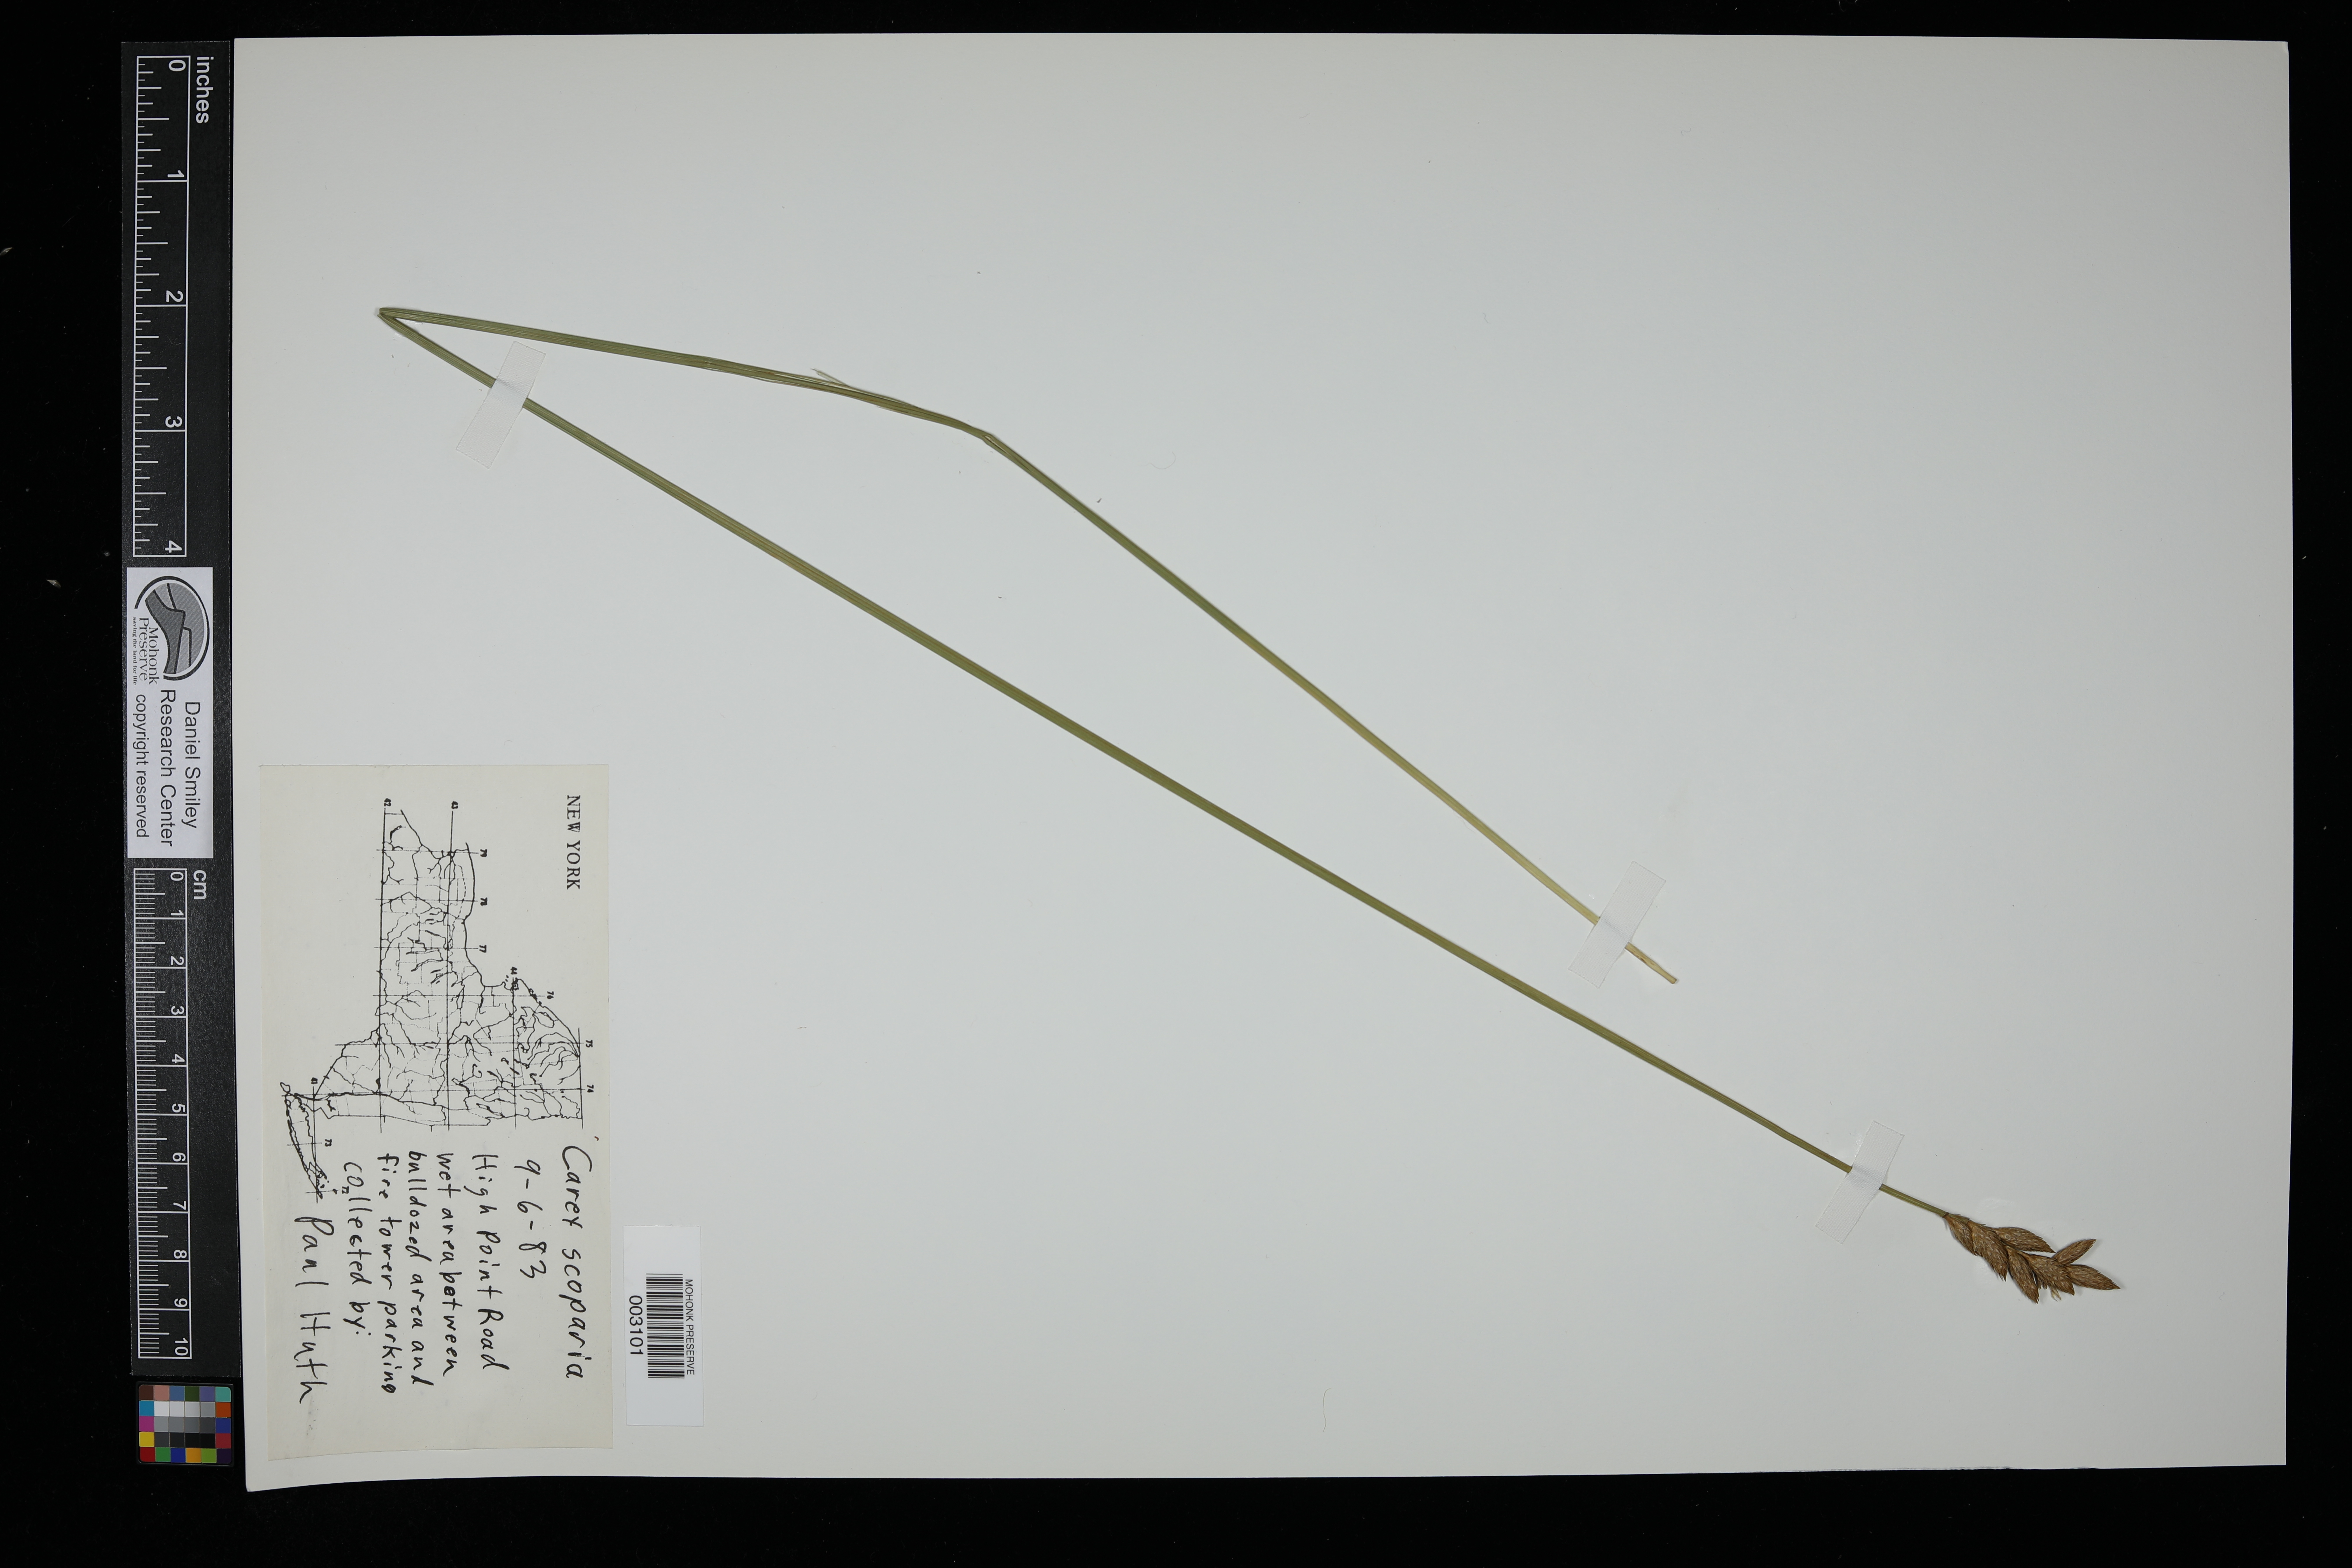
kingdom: Plantae
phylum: Tracheophyta
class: Liliopsida
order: Poales
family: Cyperaceae
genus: Carex
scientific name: Carex scoparia
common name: Broom sedge
